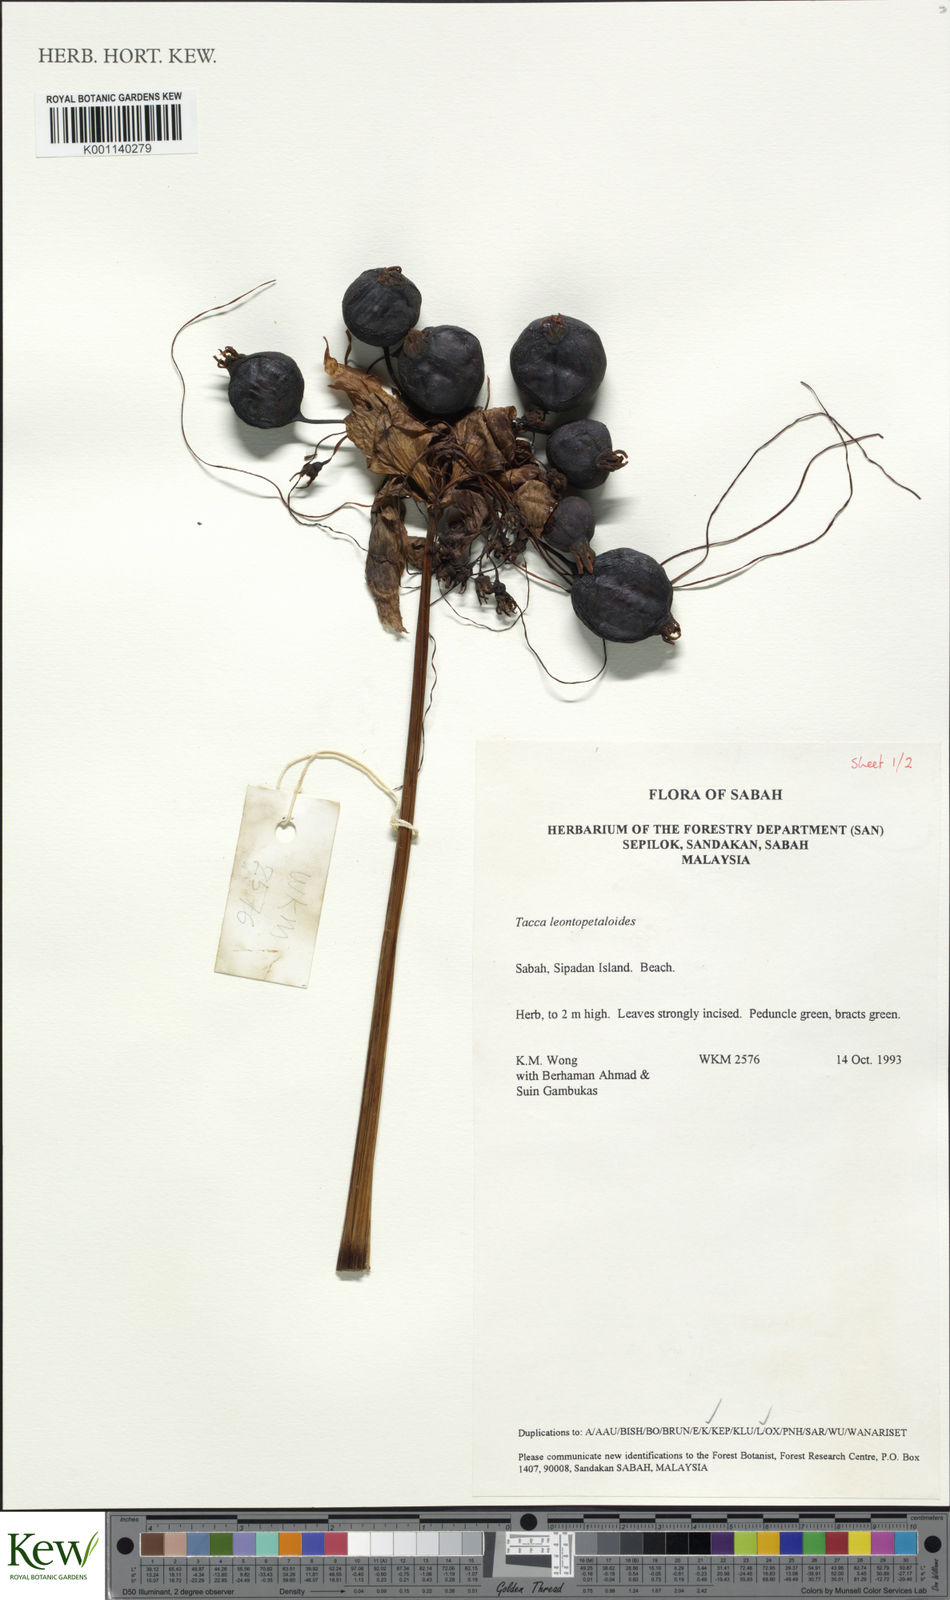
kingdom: Plantae
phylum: Tracheophyta
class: Liliopsida
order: Dioscoreales
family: Dioscoreaceae
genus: Tacca
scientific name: Tacca leontopetaloides
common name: Arrowroot
